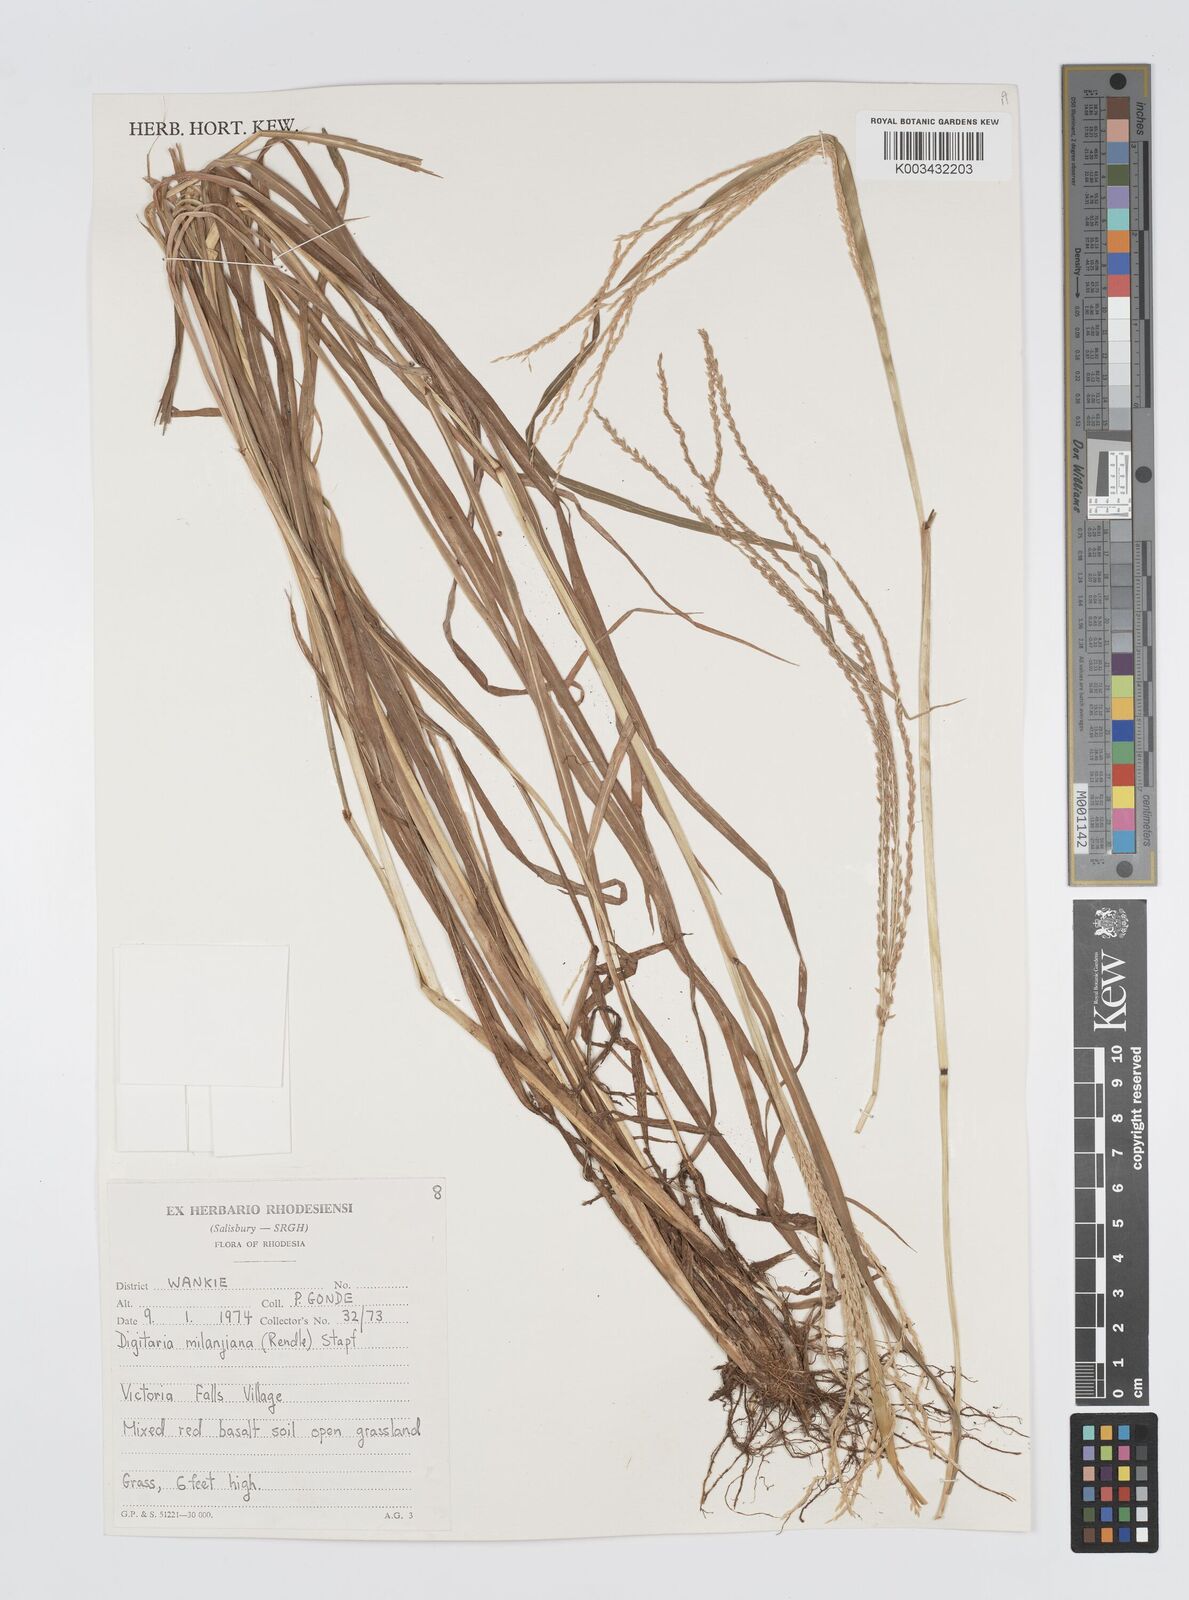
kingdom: Plantae
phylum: Tracheophyta
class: Liliopsida
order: Poales
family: Poaceae
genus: Digitaria
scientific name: Digitaria milanjiana
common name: Madagascar crabgrass
